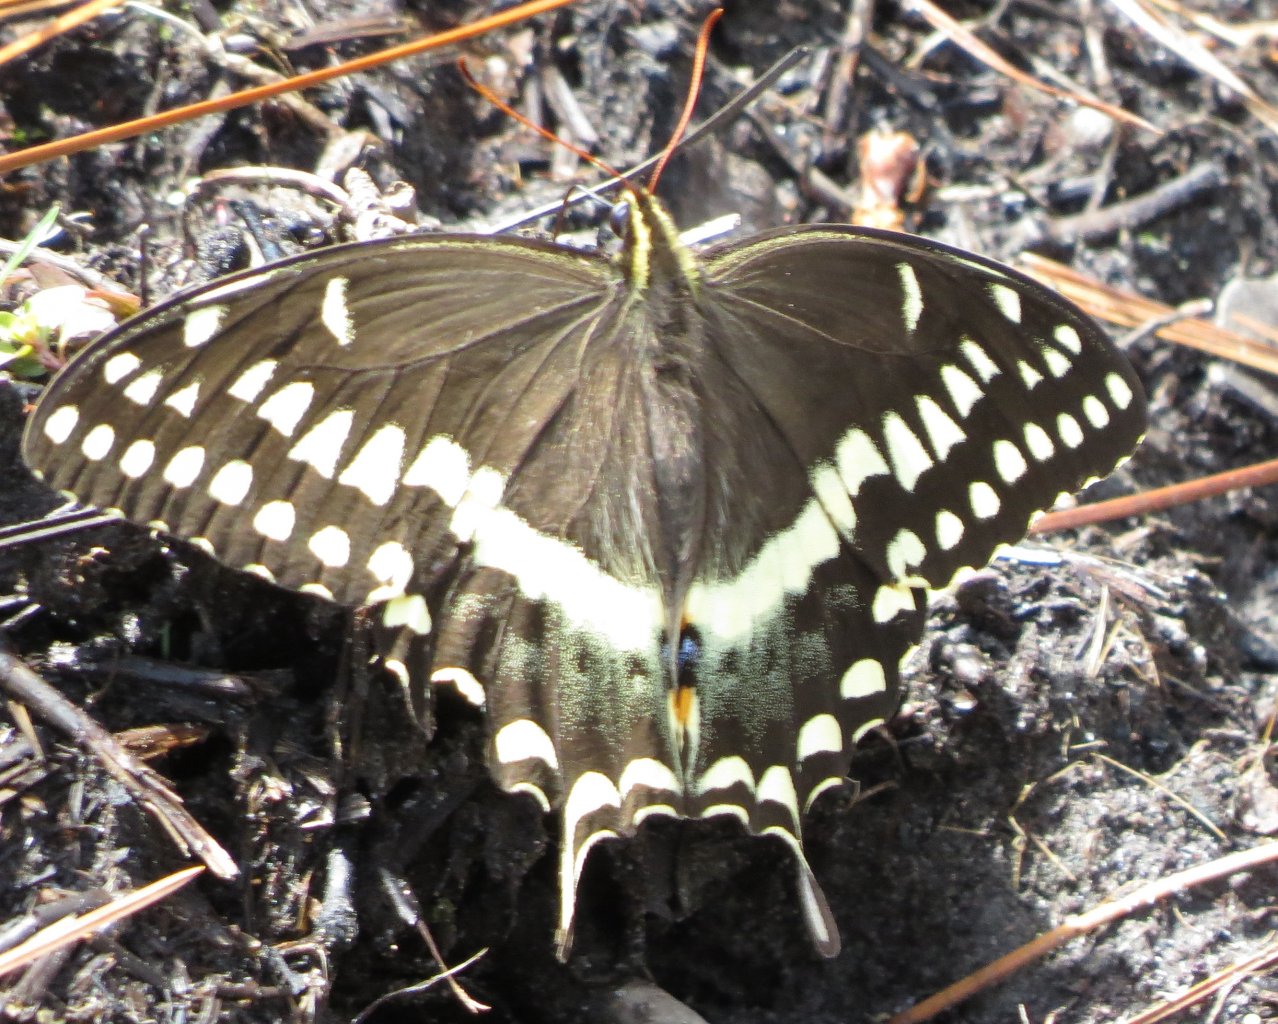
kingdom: Animalia
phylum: Arthropoda
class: Insecta
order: Lepidoptera
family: Papilionidae
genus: Pterourus
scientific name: Pterourus palamedes
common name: Palamedes Swallowtail
